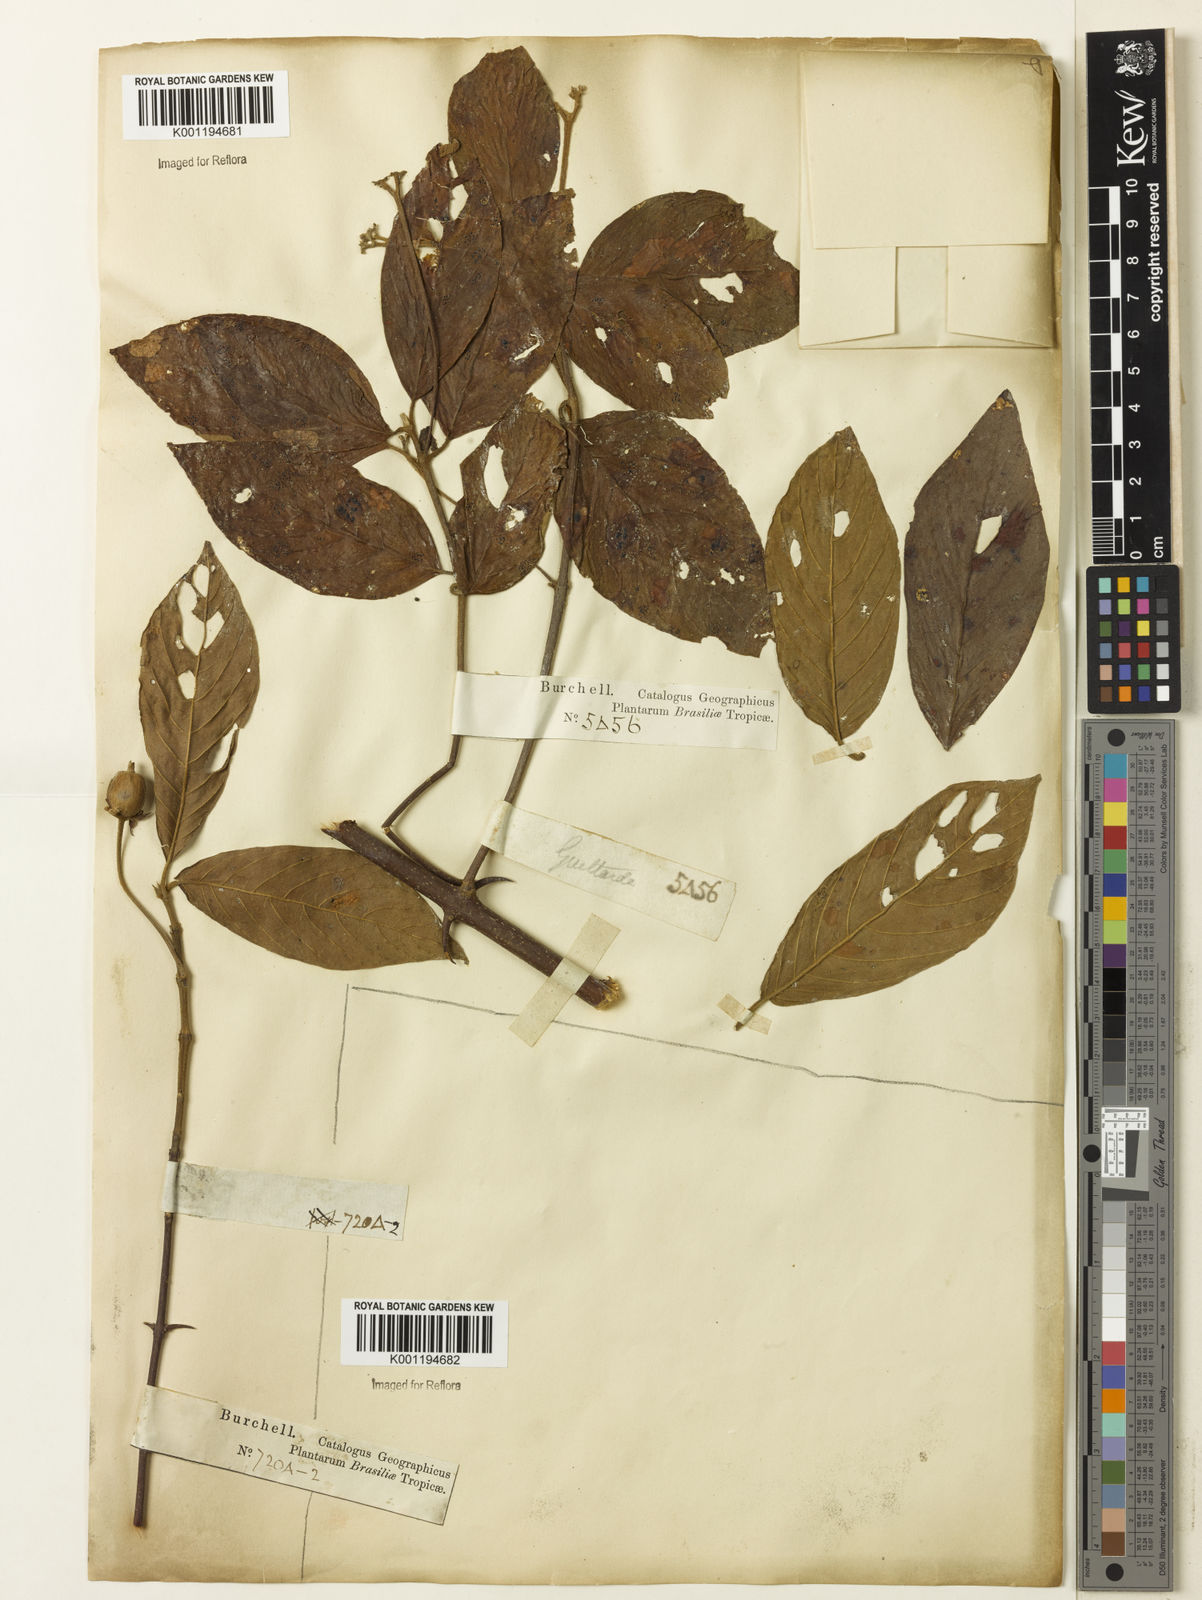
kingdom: Plantae
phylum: Tracheophyta
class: Magnoliopsida
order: Gentianales
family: Rubiaceae
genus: Guettarda
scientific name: Guettarda
